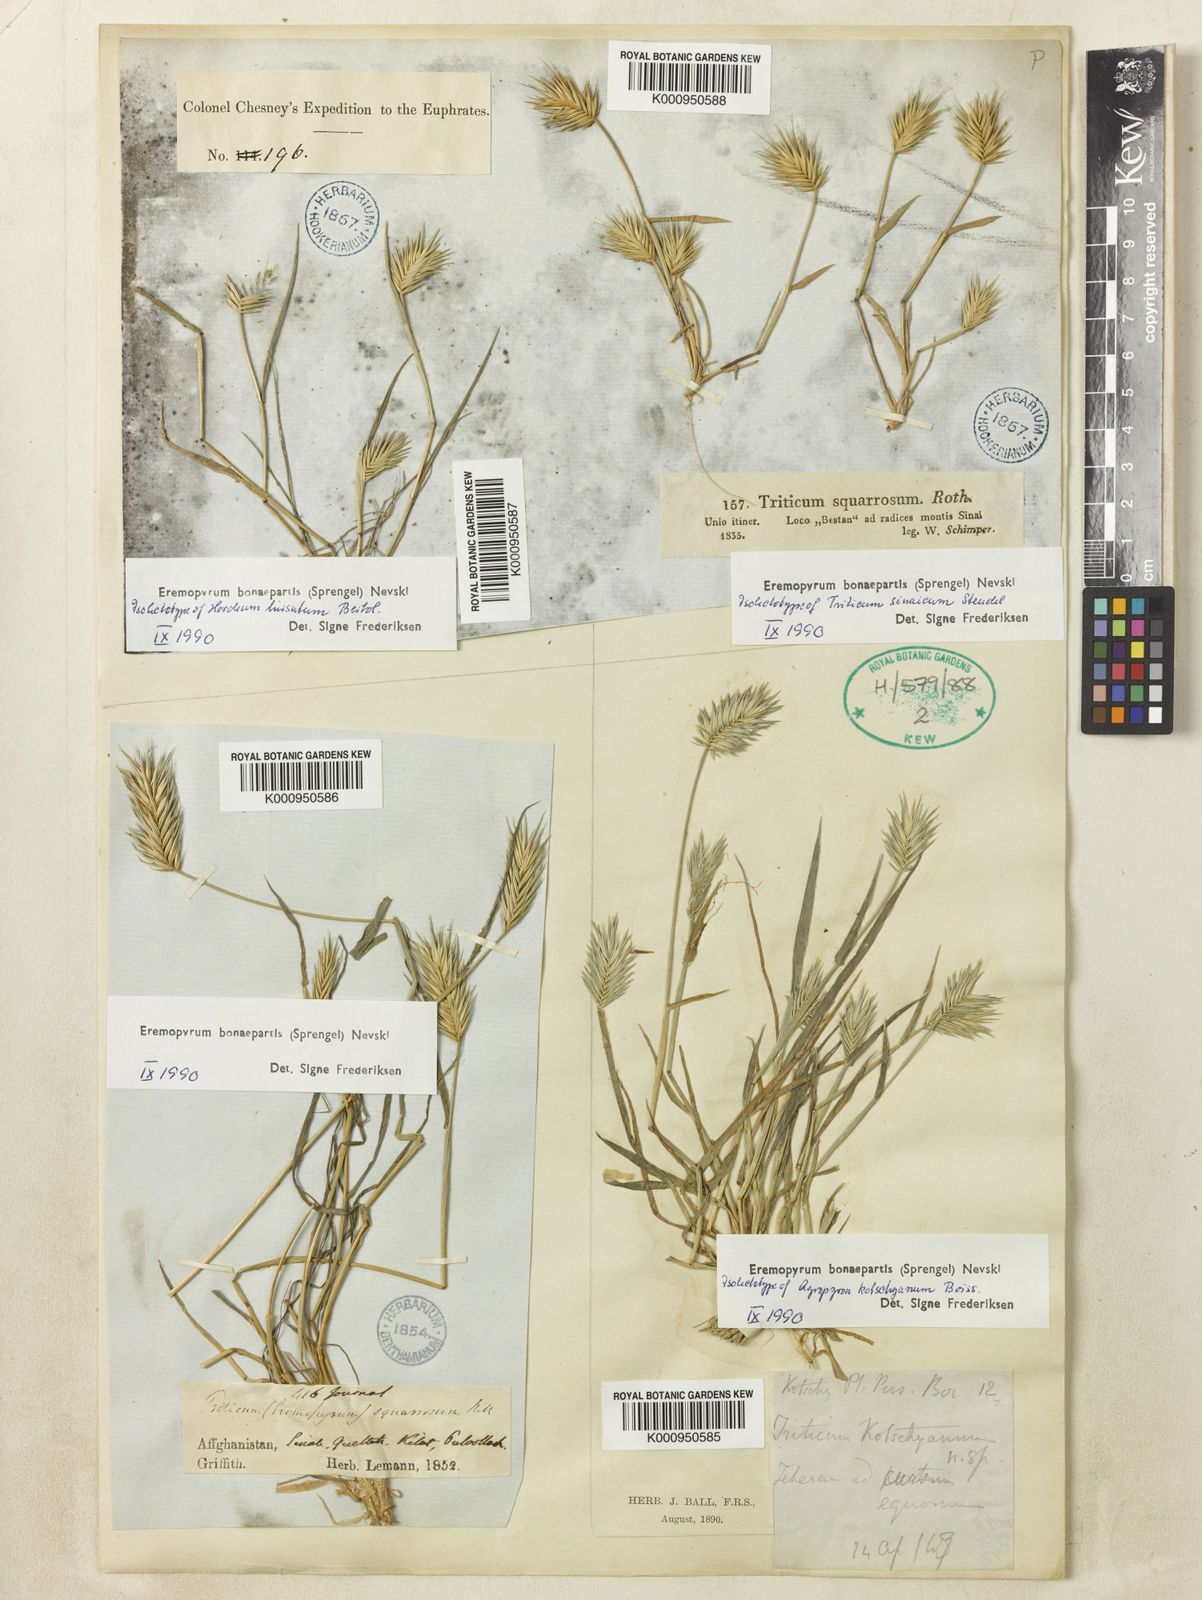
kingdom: Plantae
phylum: Tracheophyta
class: Liliopsida
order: Poales
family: Poaceae
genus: Eremopyrum
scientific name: Eremopyrum bonaepartis
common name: Tapertip false wheatgrass
